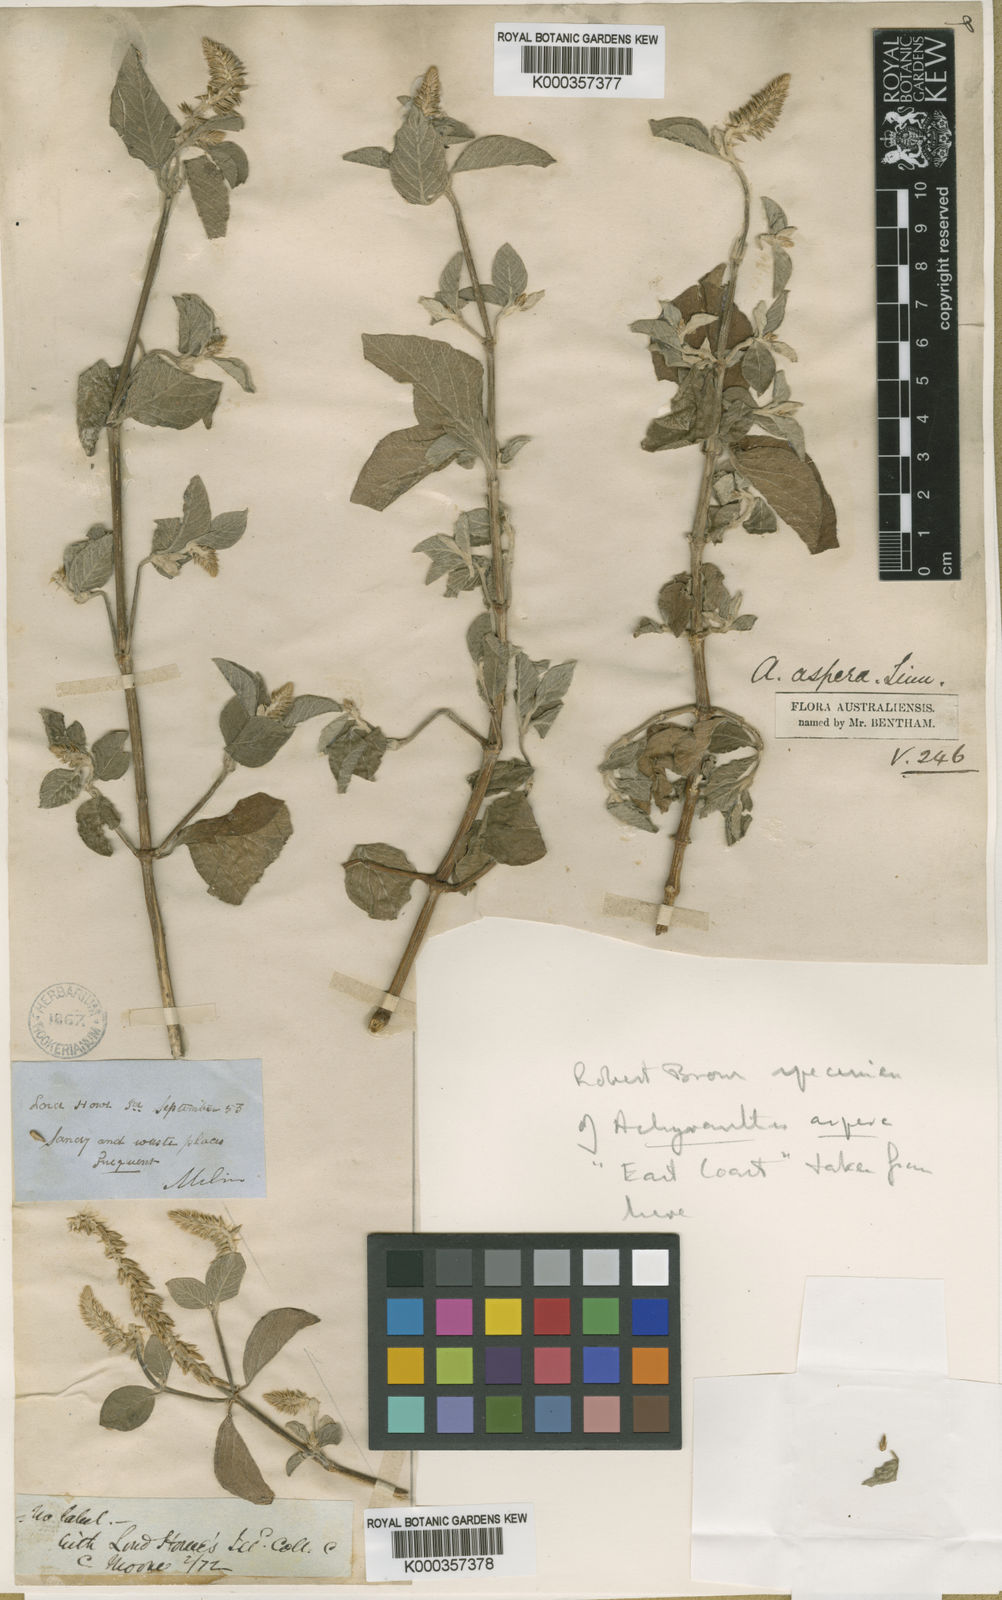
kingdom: Plantae
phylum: Tracheophyta
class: Magnoliopsida
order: Caryophyllales
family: Amaranthaceae
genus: Achyranthes
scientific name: Achyranthes aspera
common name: Devil's horsewhip
